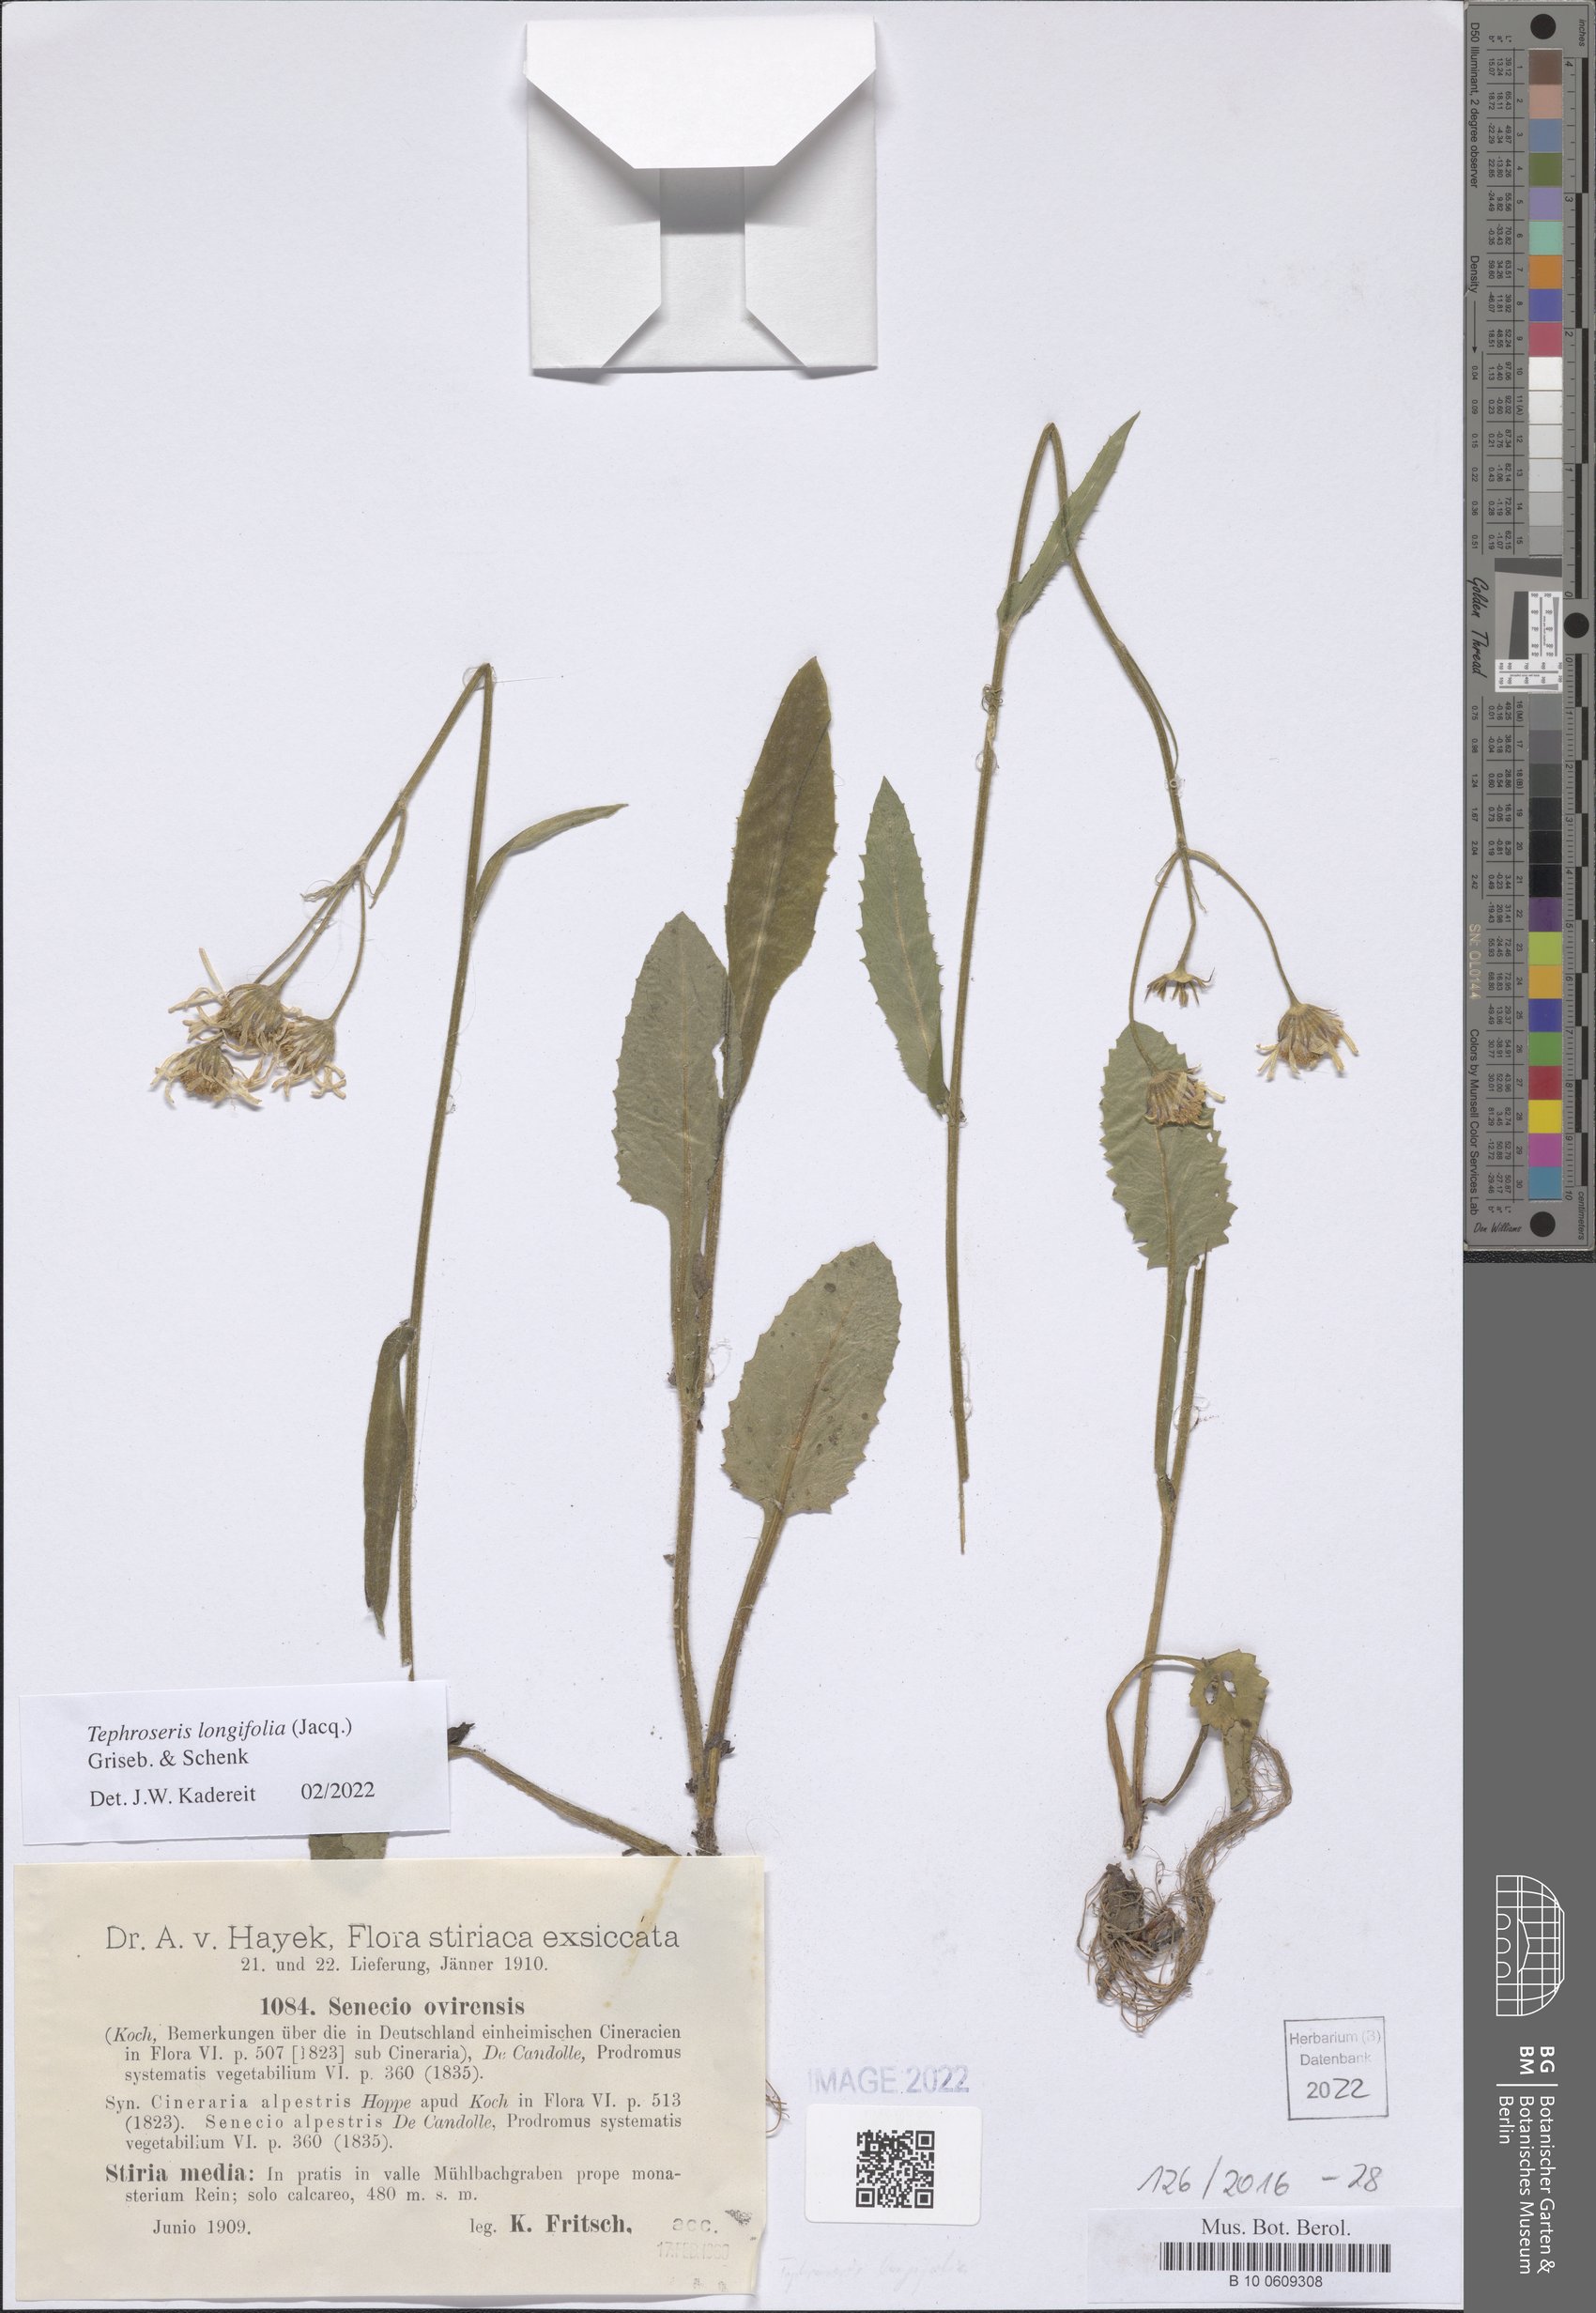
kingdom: Plantae
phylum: Tracheophyta
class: Magnoliopsida
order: Asterales
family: Asteraceae
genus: Tephroseris
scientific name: Tephroseris longifolia
